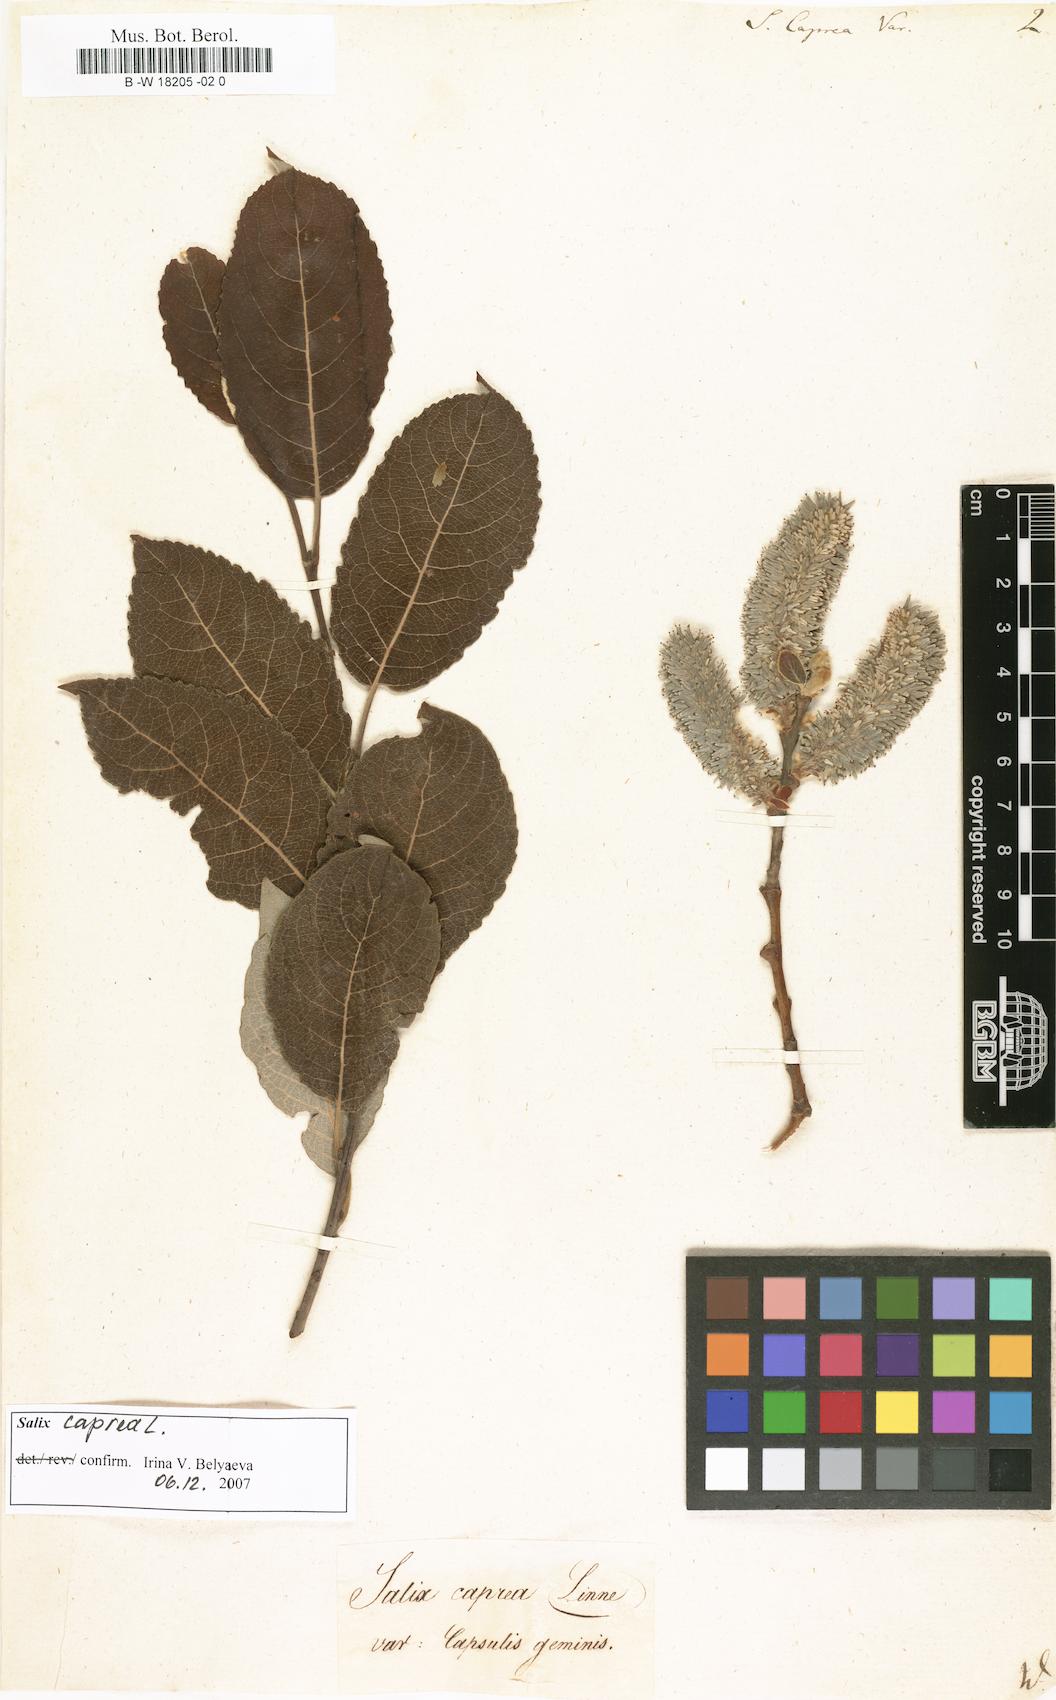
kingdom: Plantae
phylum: Tracheophyta
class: Magnoliopsida
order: Malpighiales
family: Salicaceae
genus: Salix
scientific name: Salix caprea
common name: Goat willow
